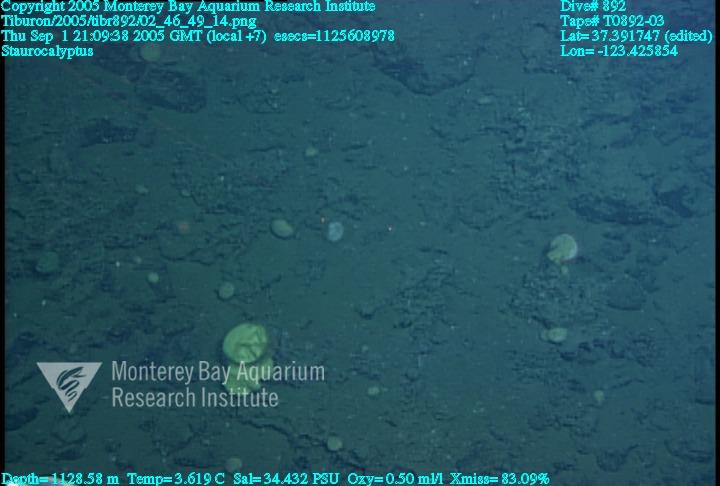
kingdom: Animalia
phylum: Porifera
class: Hexactinellida
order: Lyssacinosida
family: Rossellidae
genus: Staurocalyptus
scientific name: Staurocalyptus
